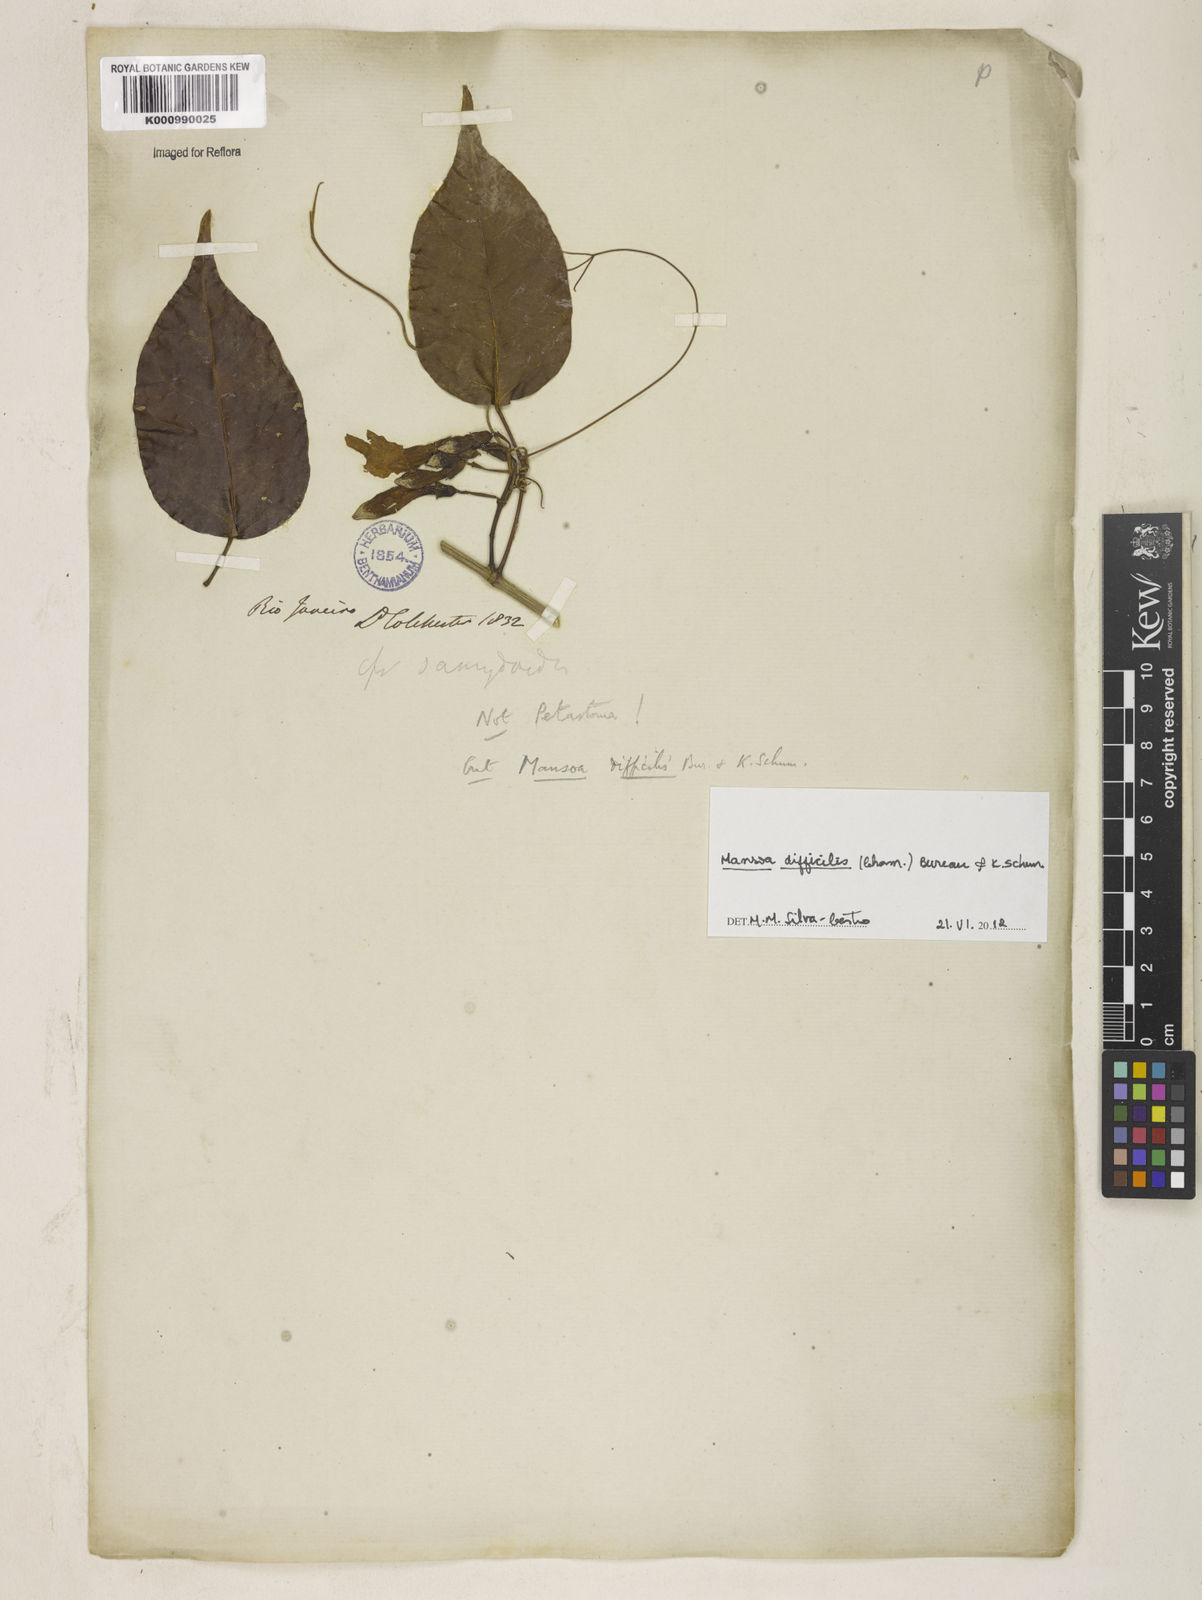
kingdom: Plantae
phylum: Tracheophyta
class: Magnoliopsida
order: Lamiales
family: Bignoniaceae
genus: Mansoa
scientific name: Mansoa difficilis
